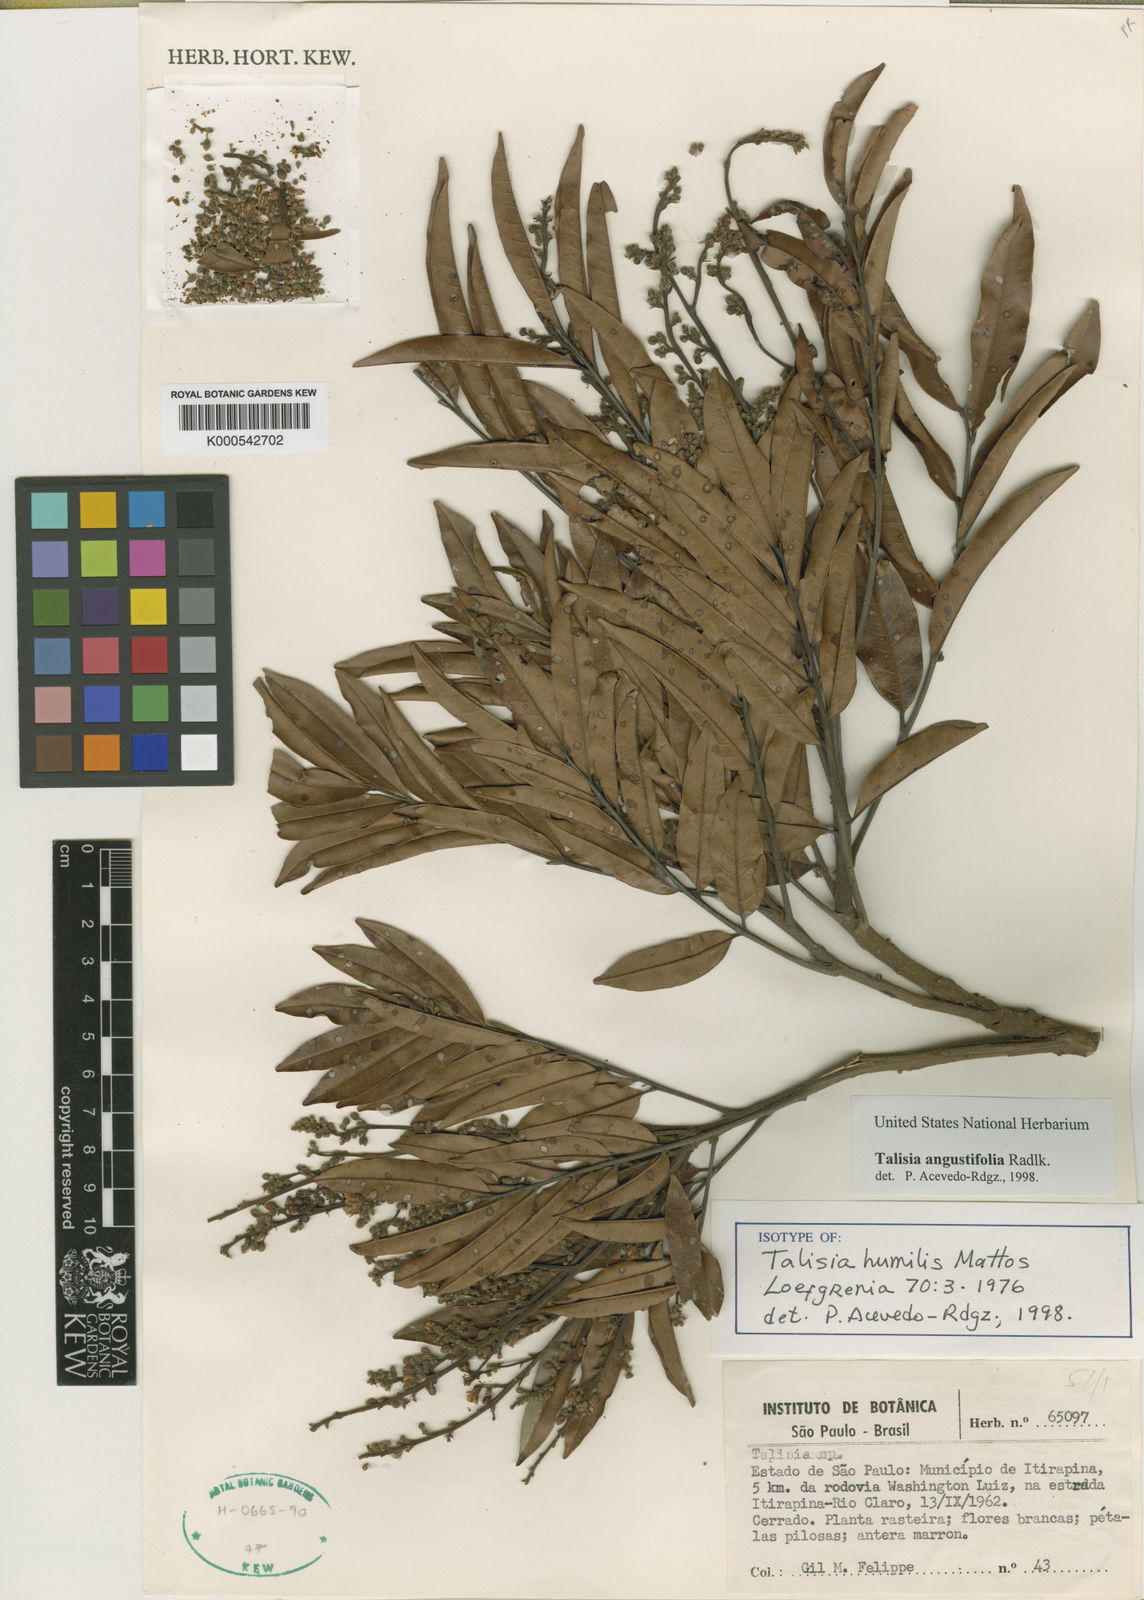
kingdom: Plantae
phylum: Tracheophyta
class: Magnoliopsida
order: Sapindales
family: Sapindaceae
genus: Talisia
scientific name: Talisia angustifolia
